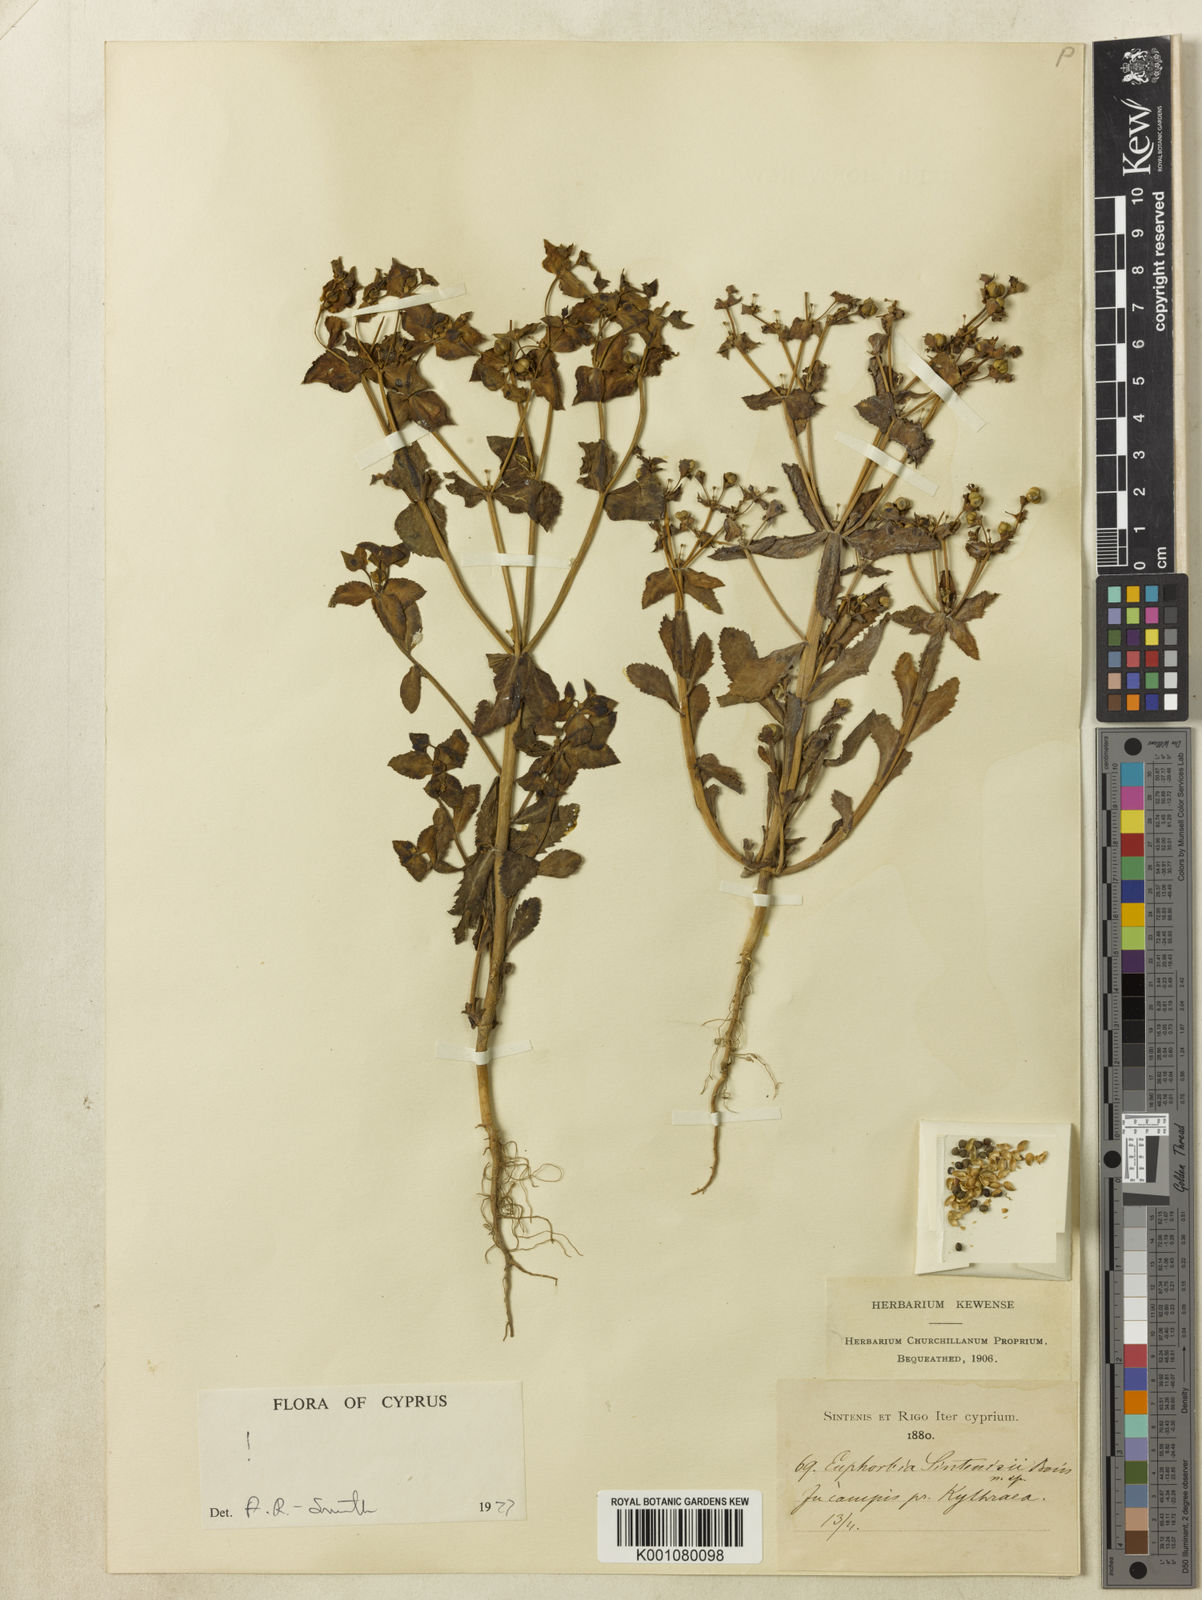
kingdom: Plantae
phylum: Tracheophyta
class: Magnoliopsida
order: Malpighiales
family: Euphorbiaceae
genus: Euphorbia
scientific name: Euphorbia sintenisii
